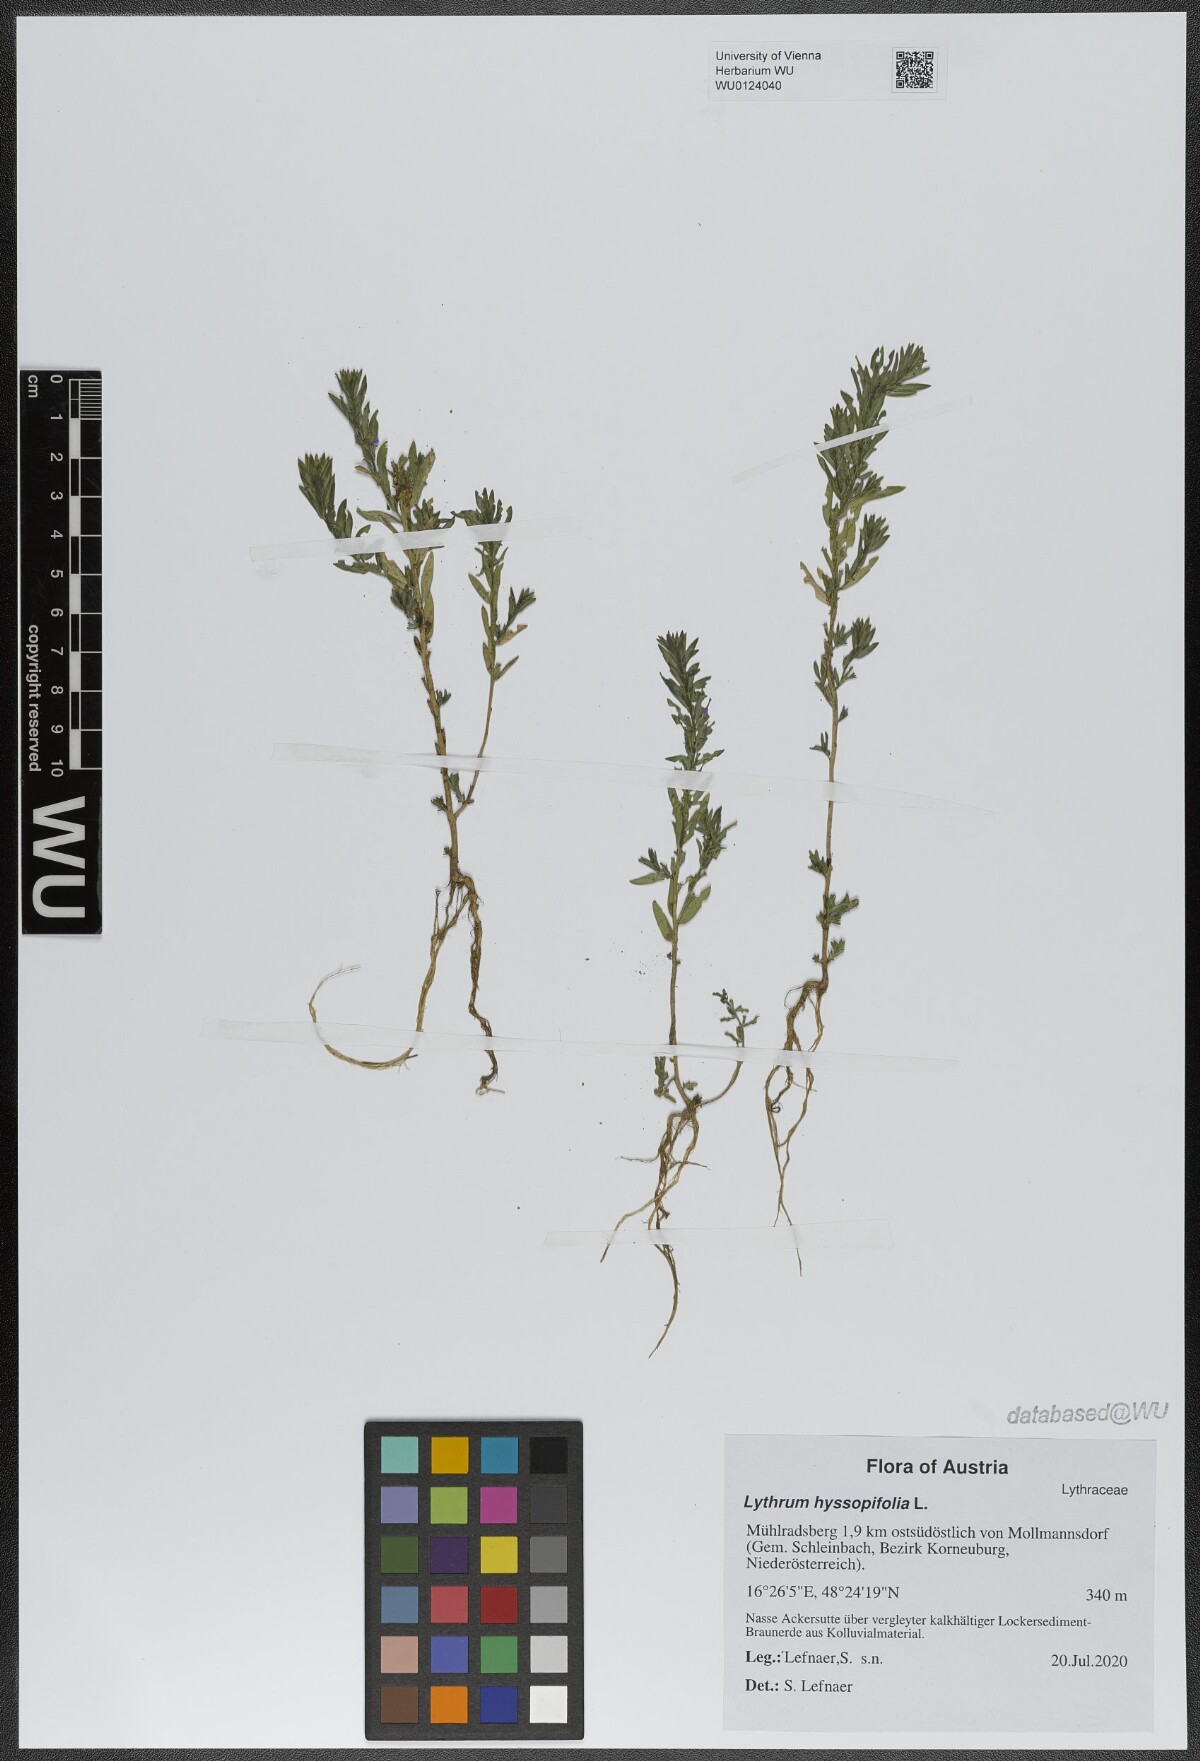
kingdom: Plantae
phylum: Tracheophyta
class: Magnoliopsida
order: Myrtales
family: Lythraceae
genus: Lythrum
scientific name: Lythrum hyssopifolia
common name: Grass-poly
